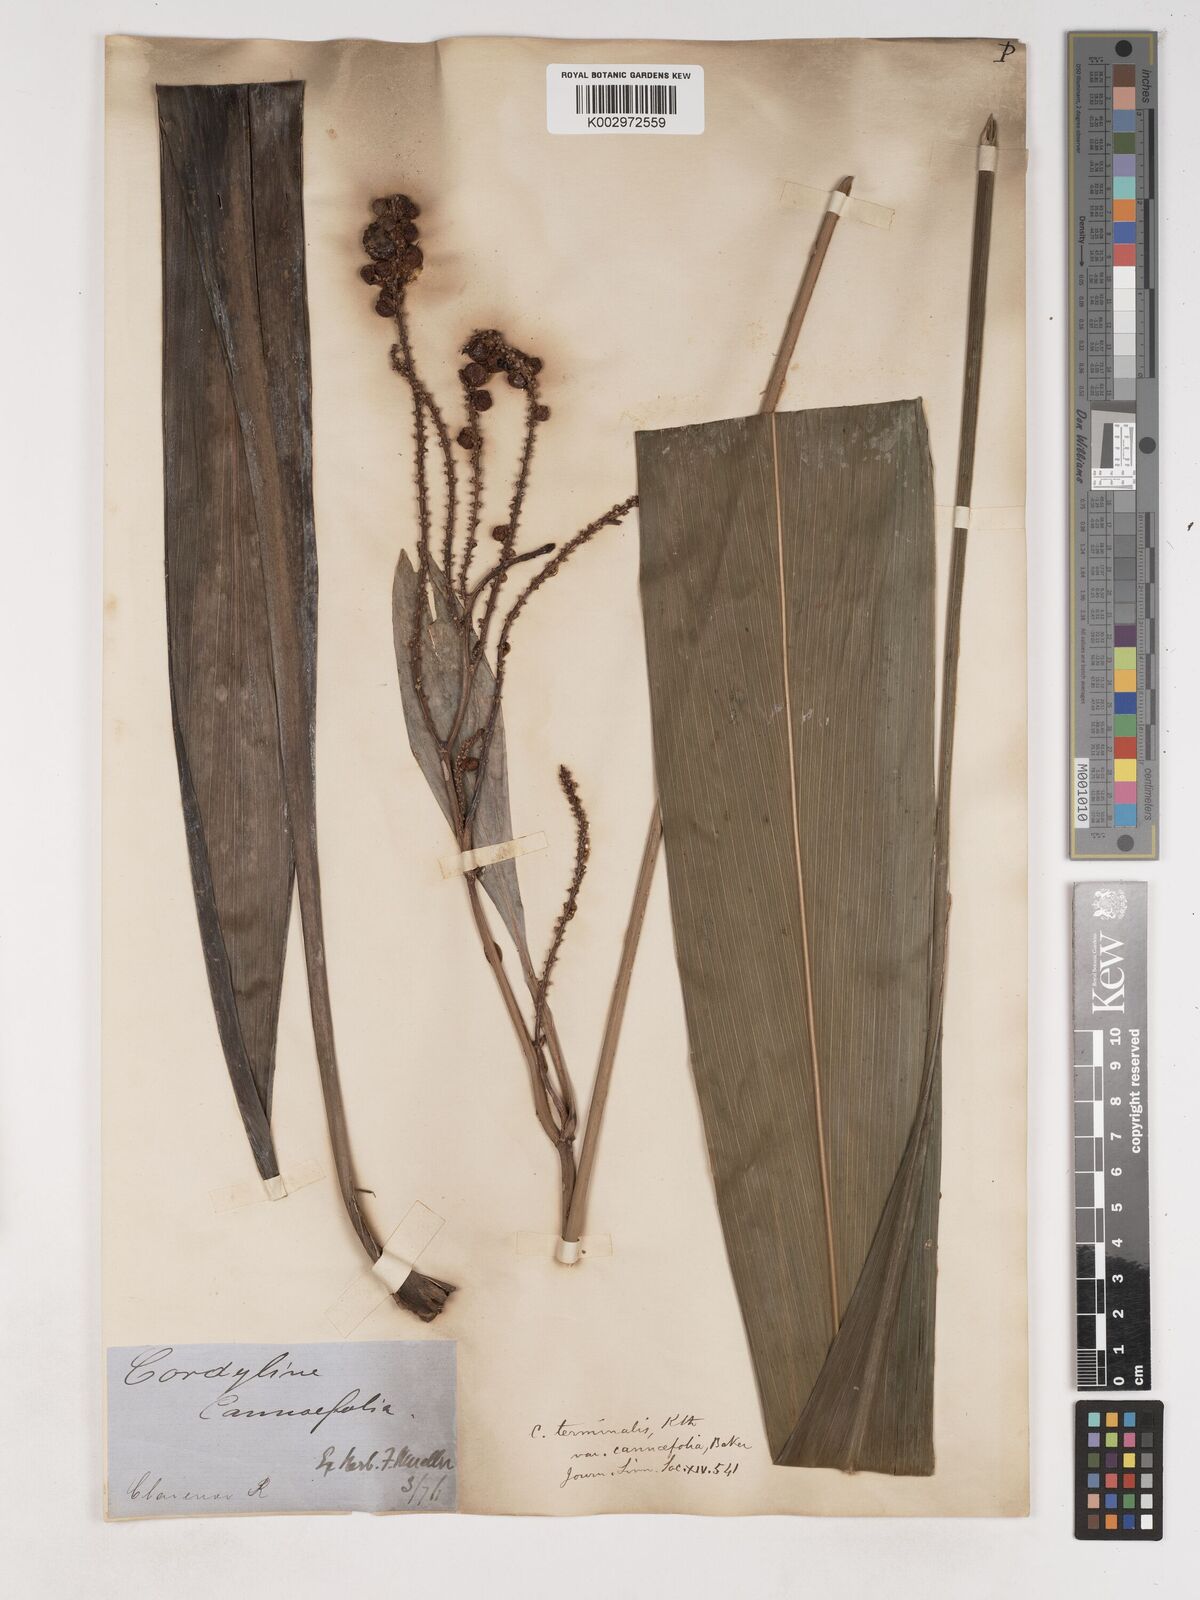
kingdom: Plantae
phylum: Tracheophyta
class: Liliopsida
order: Asparagales
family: Asparagaceae
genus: Cordyline
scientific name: Cordyline fruticosa
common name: Good-luck-plant
